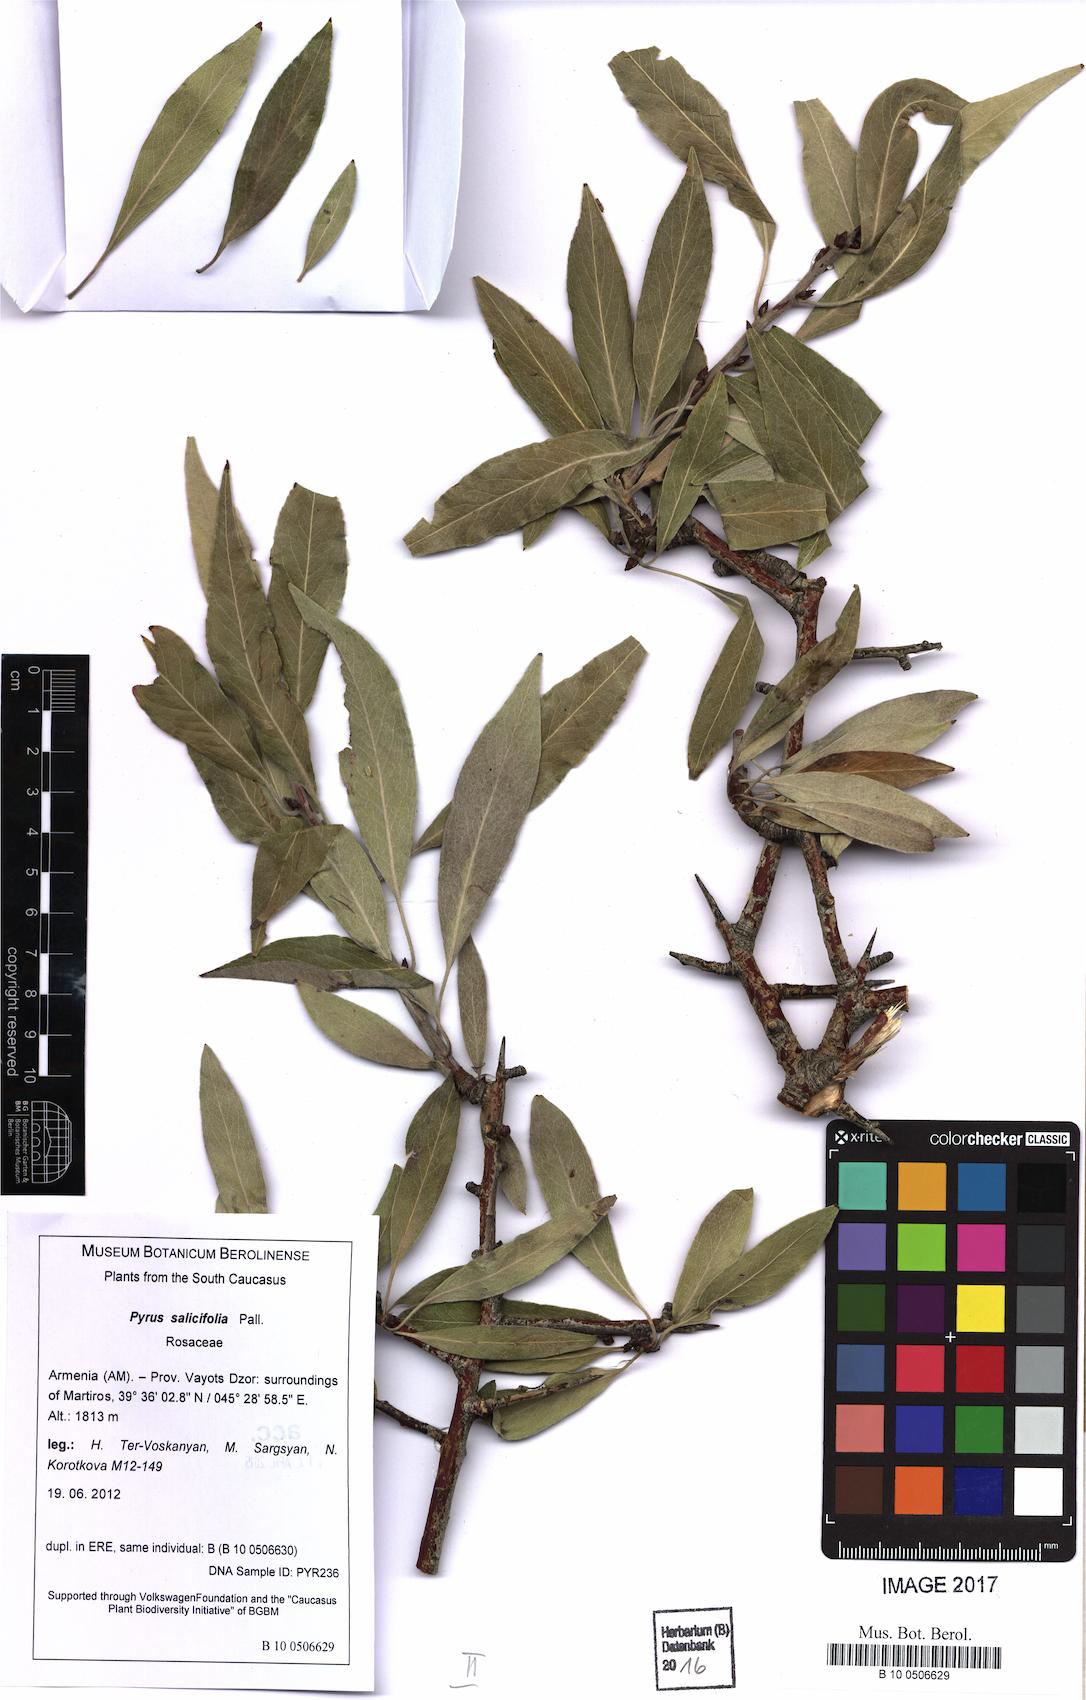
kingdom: Plantae
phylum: Tracheophyta
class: Magnoliopsida
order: Rosales
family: Rosaceae
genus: Pyrus
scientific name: Pyrus salicifolia
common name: Willow-leaved pear
